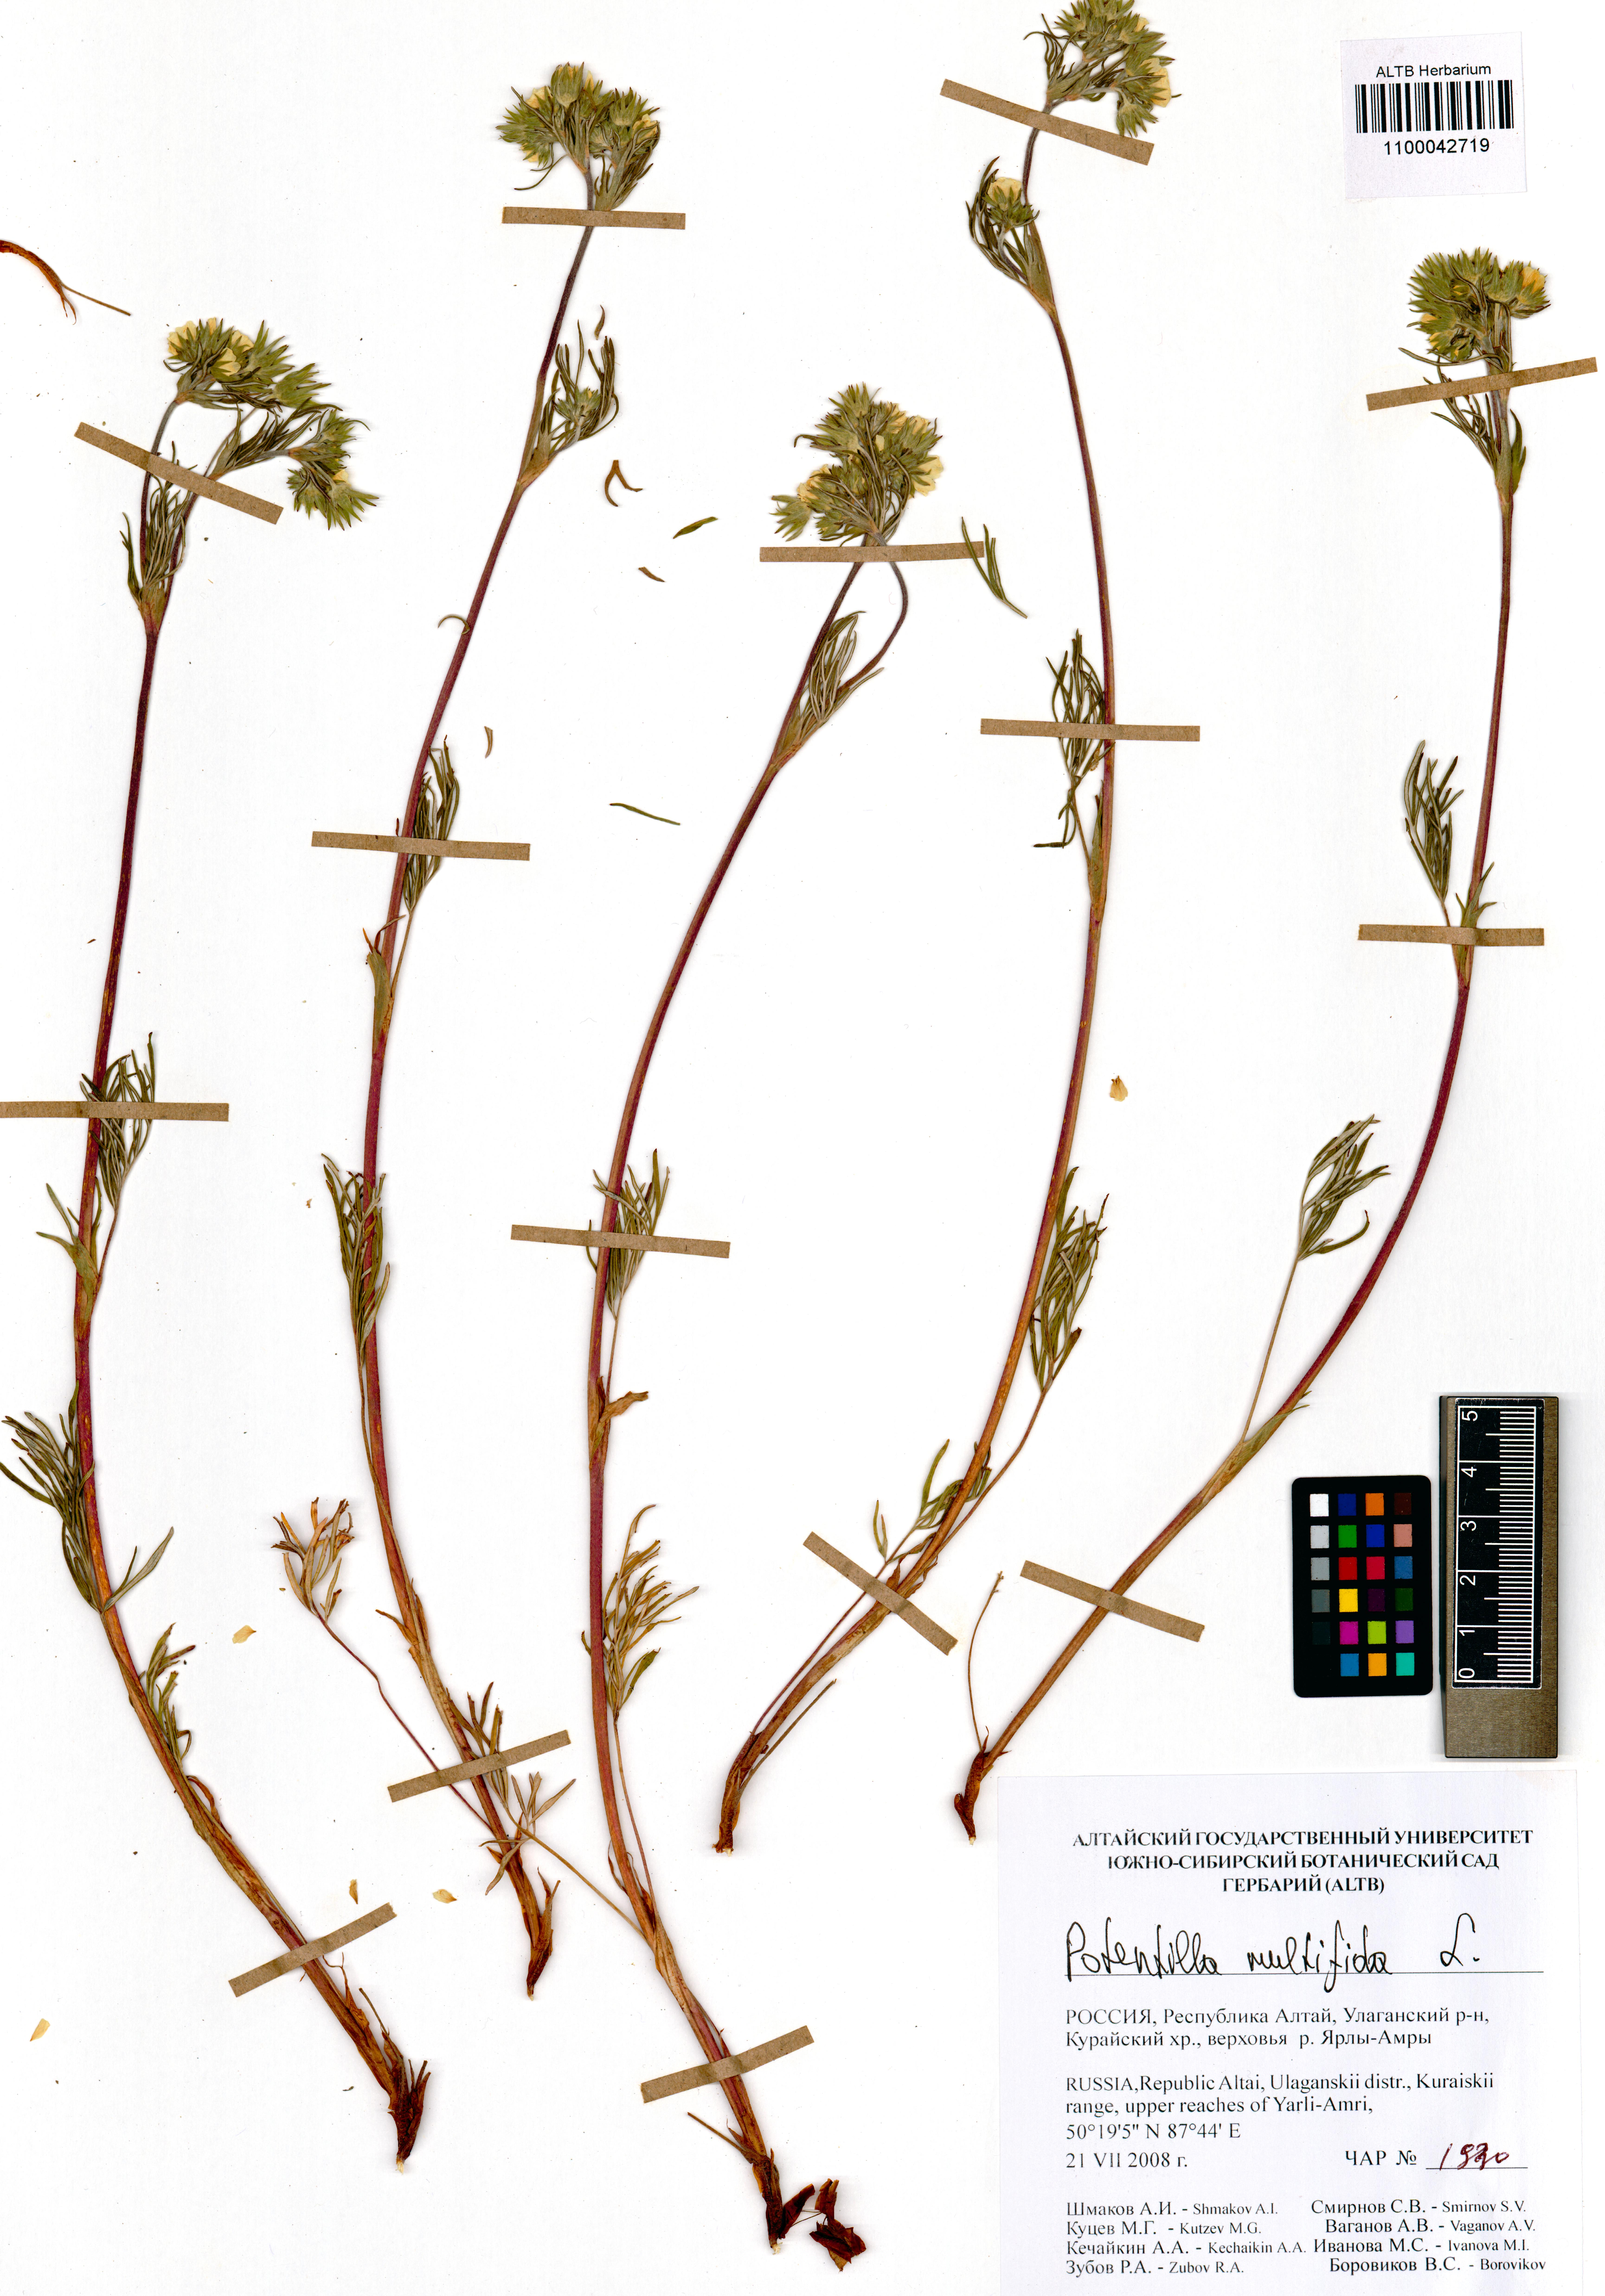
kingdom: Plantae
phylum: Tracheophyta
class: Magnoliopsida
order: Rosales
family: Rosaceae
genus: Potentilla
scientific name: Potentilla multifida
